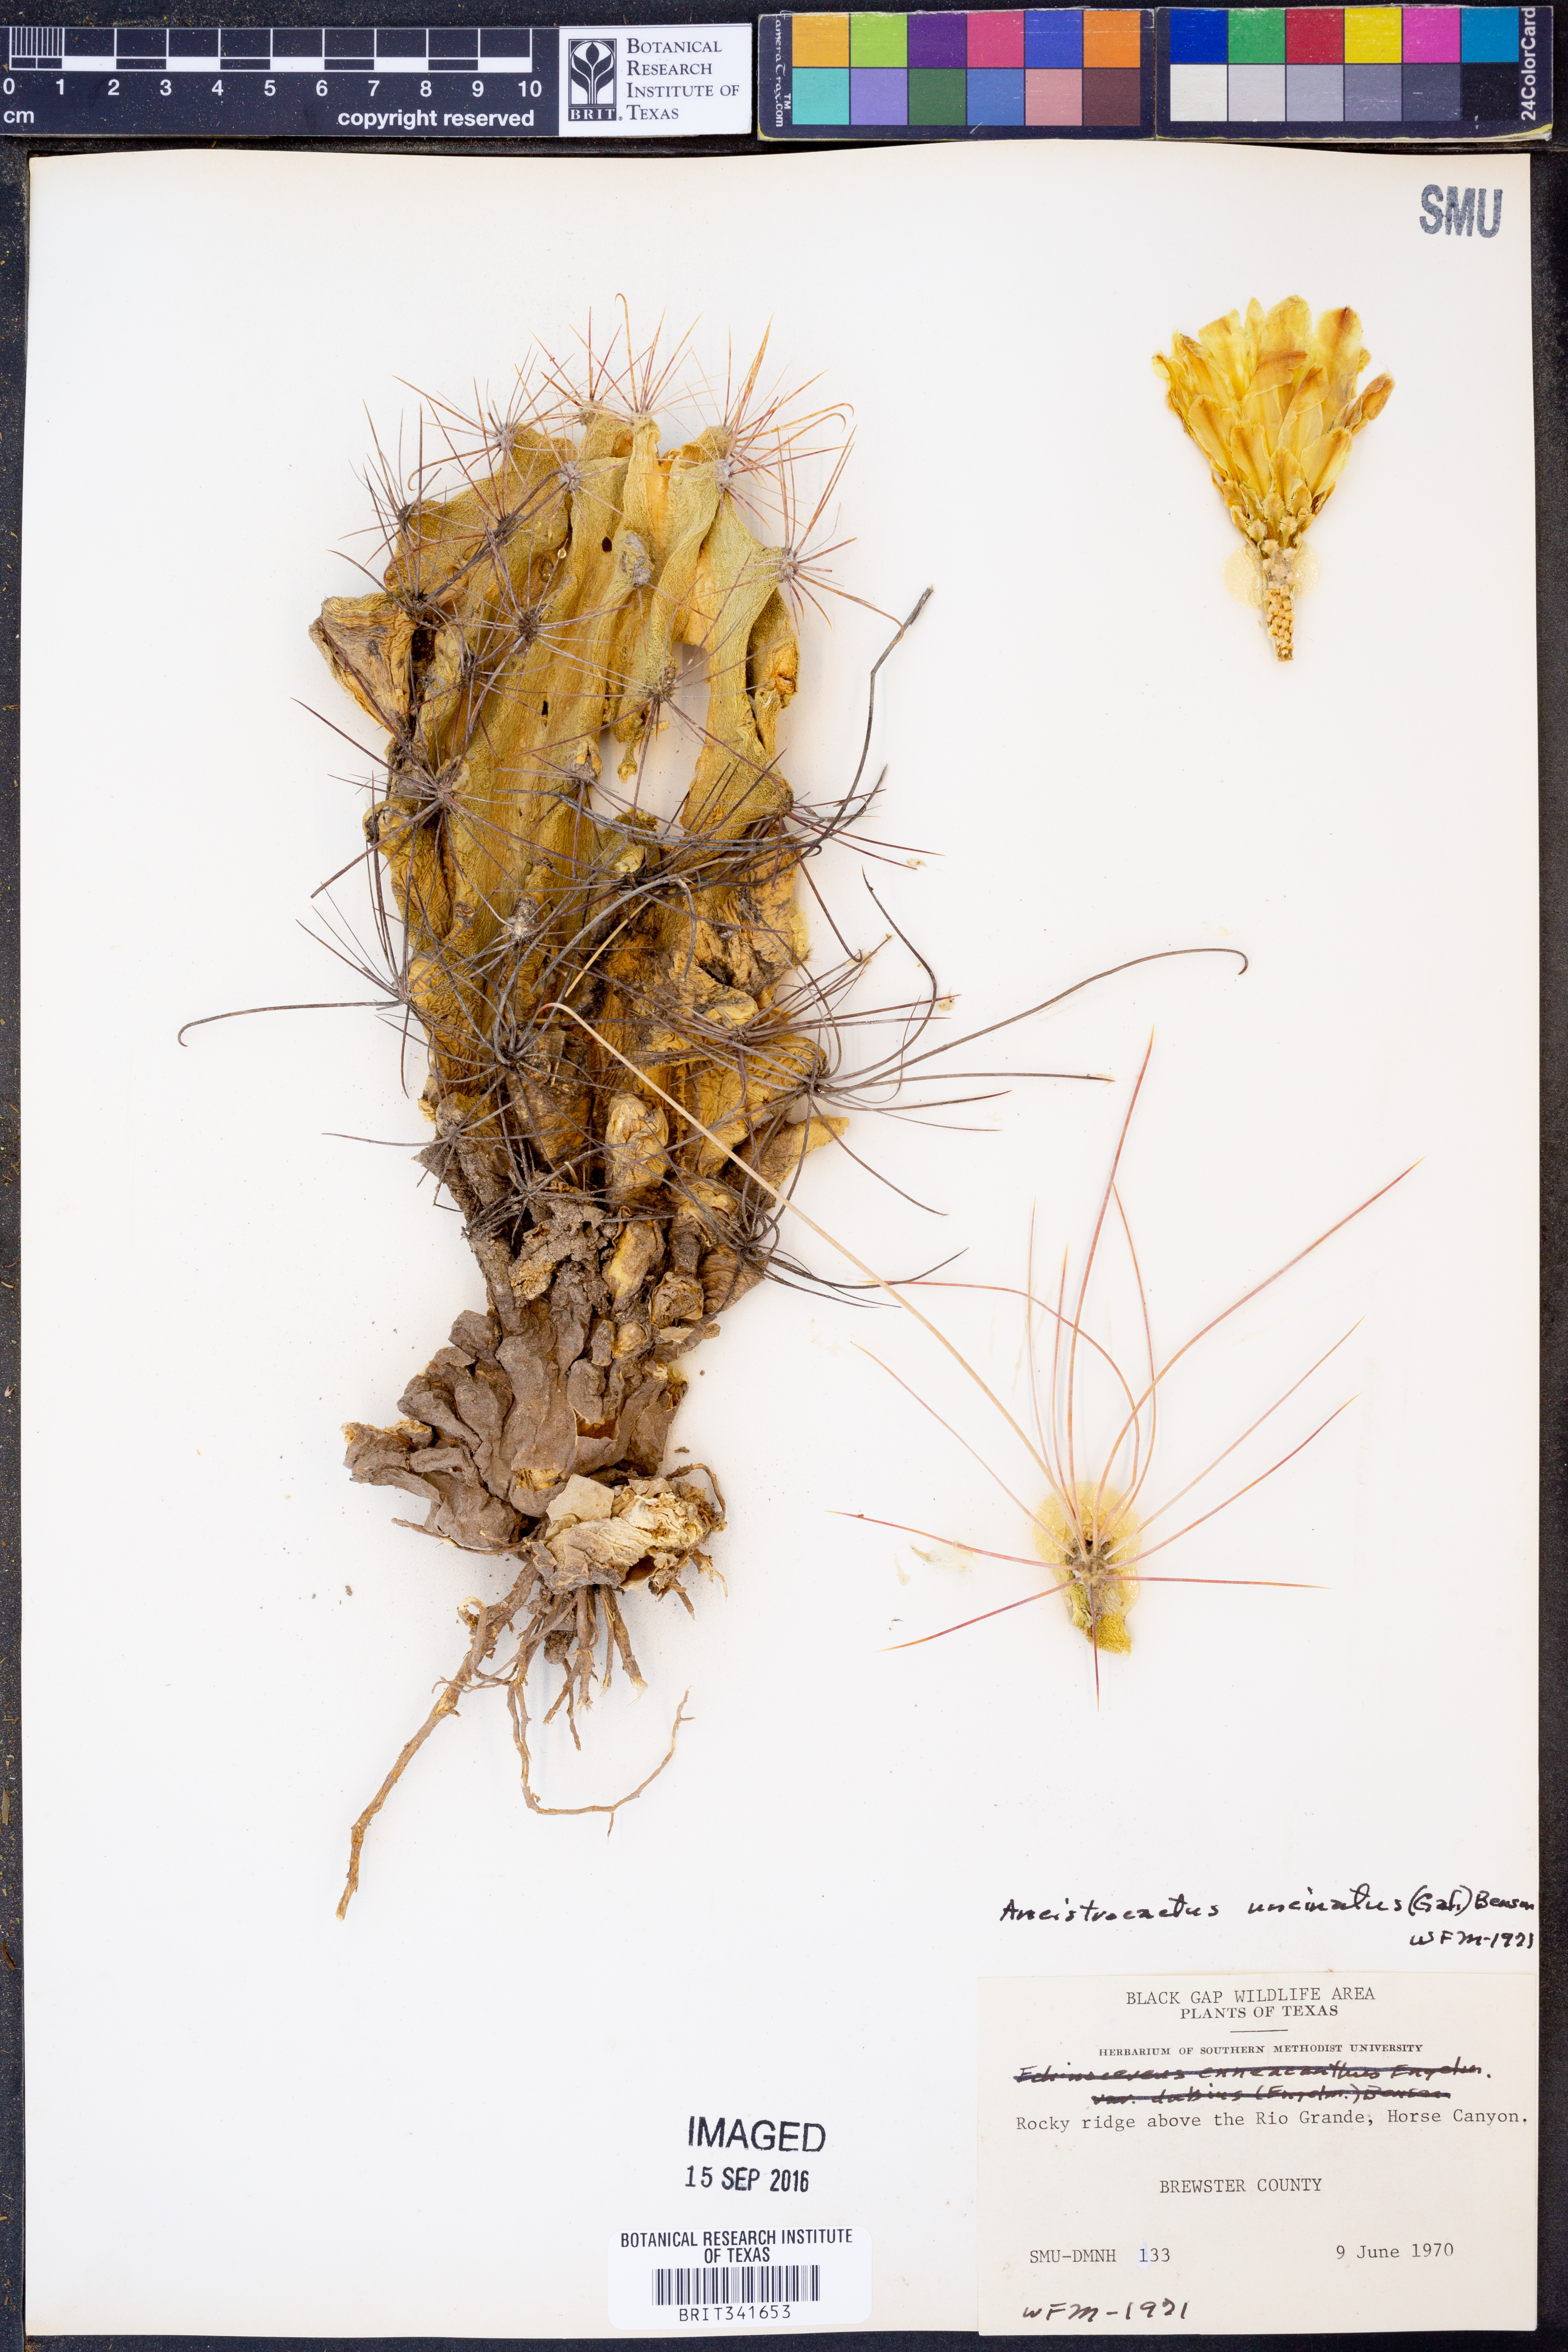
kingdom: Plantae
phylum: Tracheophyta
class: Magnoliopsida
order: Caryophyllales
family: Cactaceae
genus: Ferocactus
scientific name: Ferocactus uncinatus
